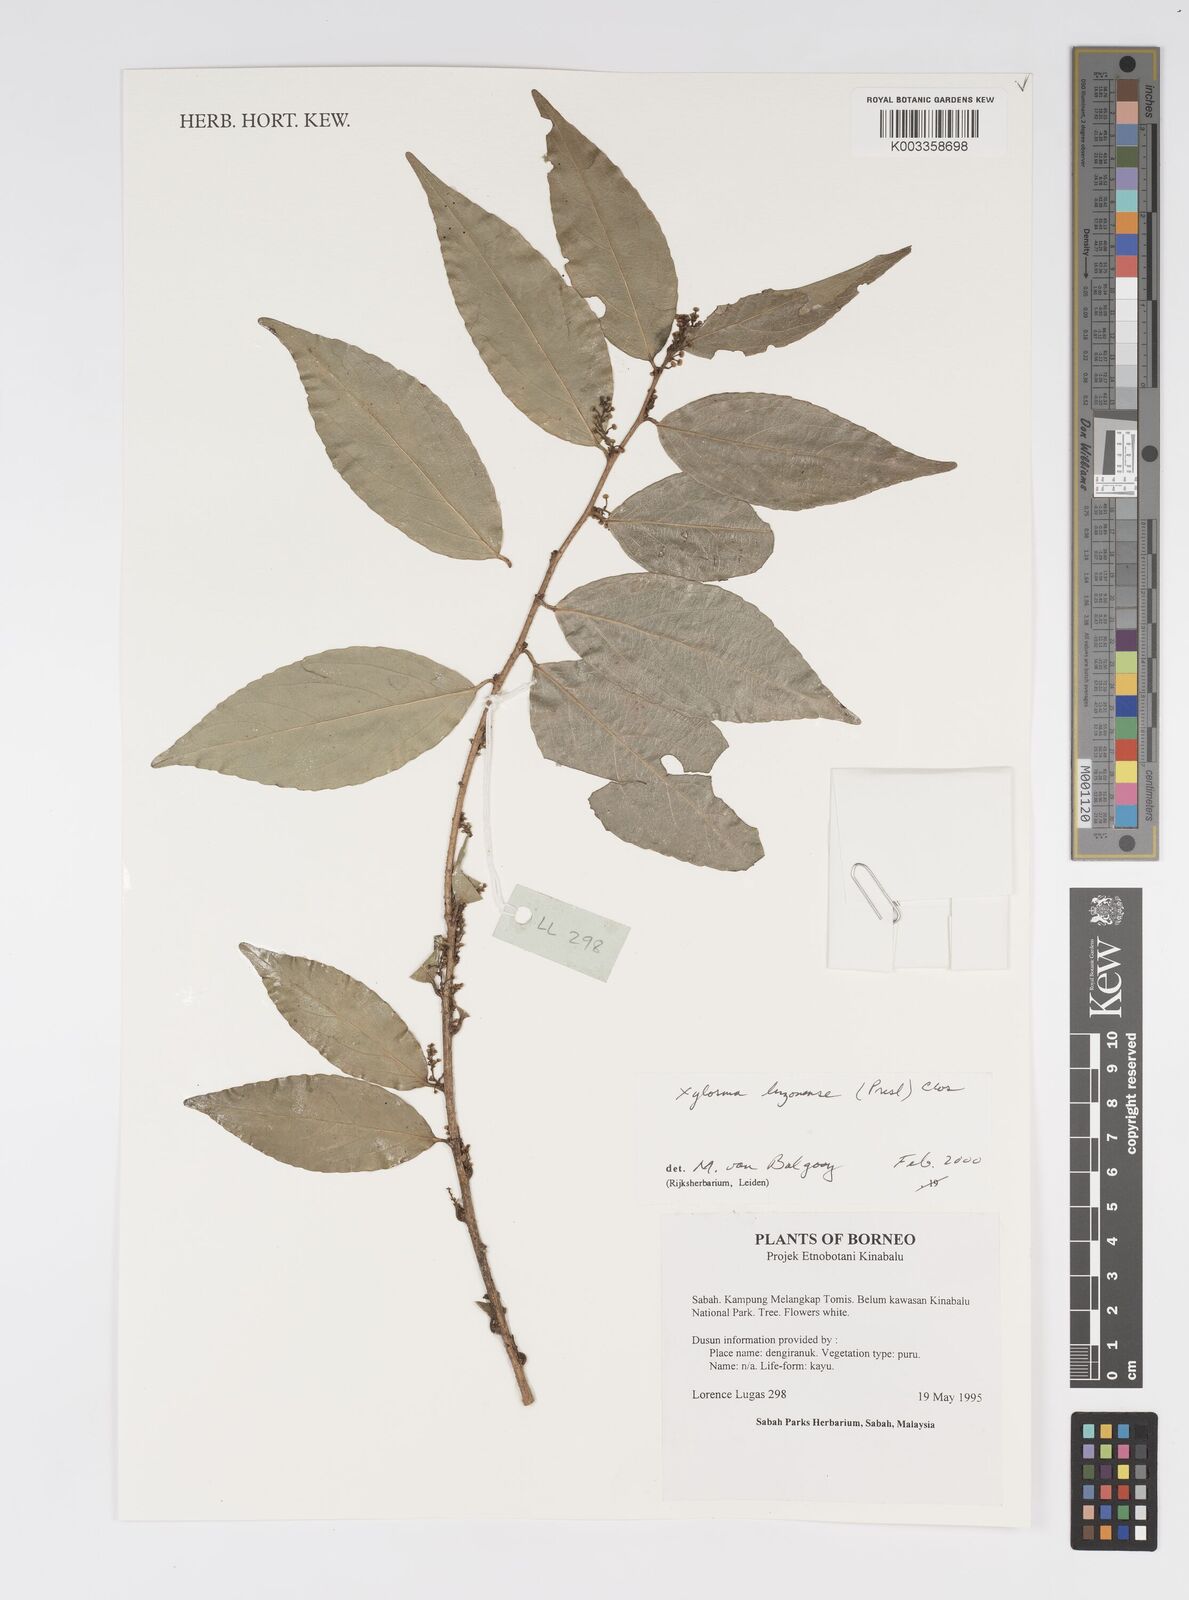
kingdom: Plantae
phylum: Tracheophyta
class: Magnoliopsida
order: Malpighiales
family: Salicaceae
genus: Xylosma
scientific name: Xylosma luzonensis
